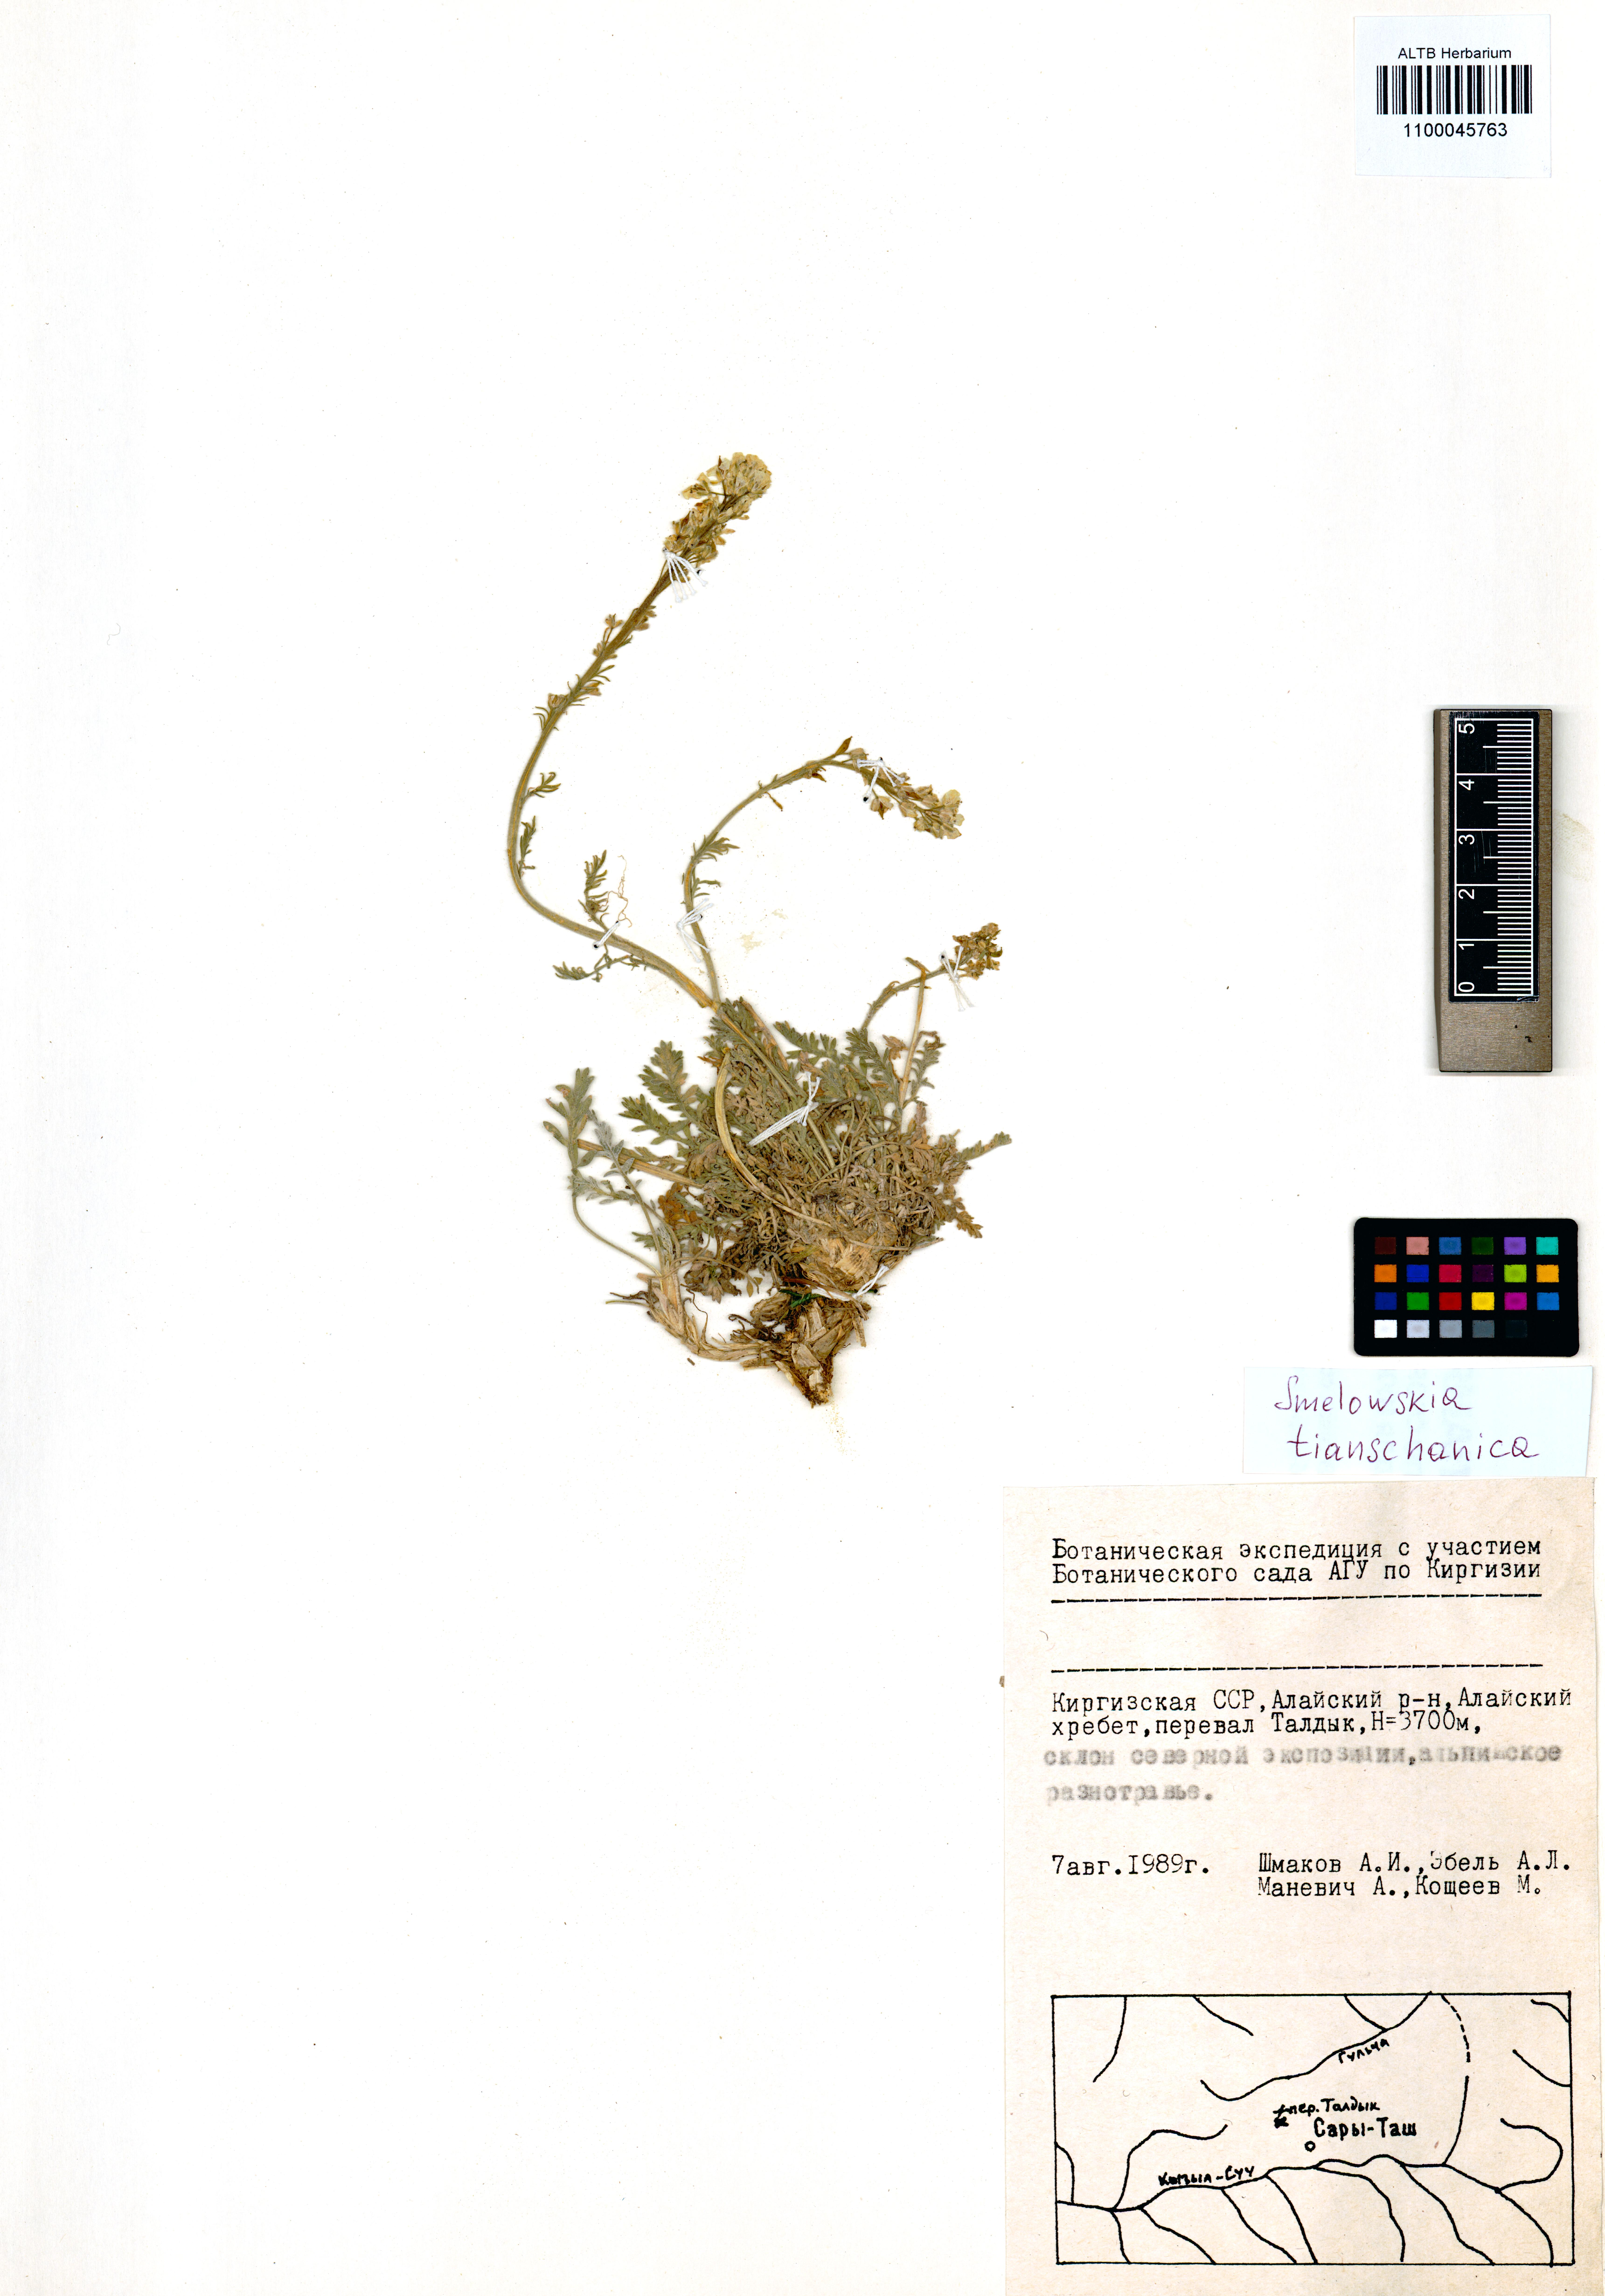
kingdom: Plantae
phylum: Tracheophyta
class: Magnoliopsida
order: Brassicales
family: Brassicaceae
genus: Smelowskia
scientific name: Smelowskia calycina
